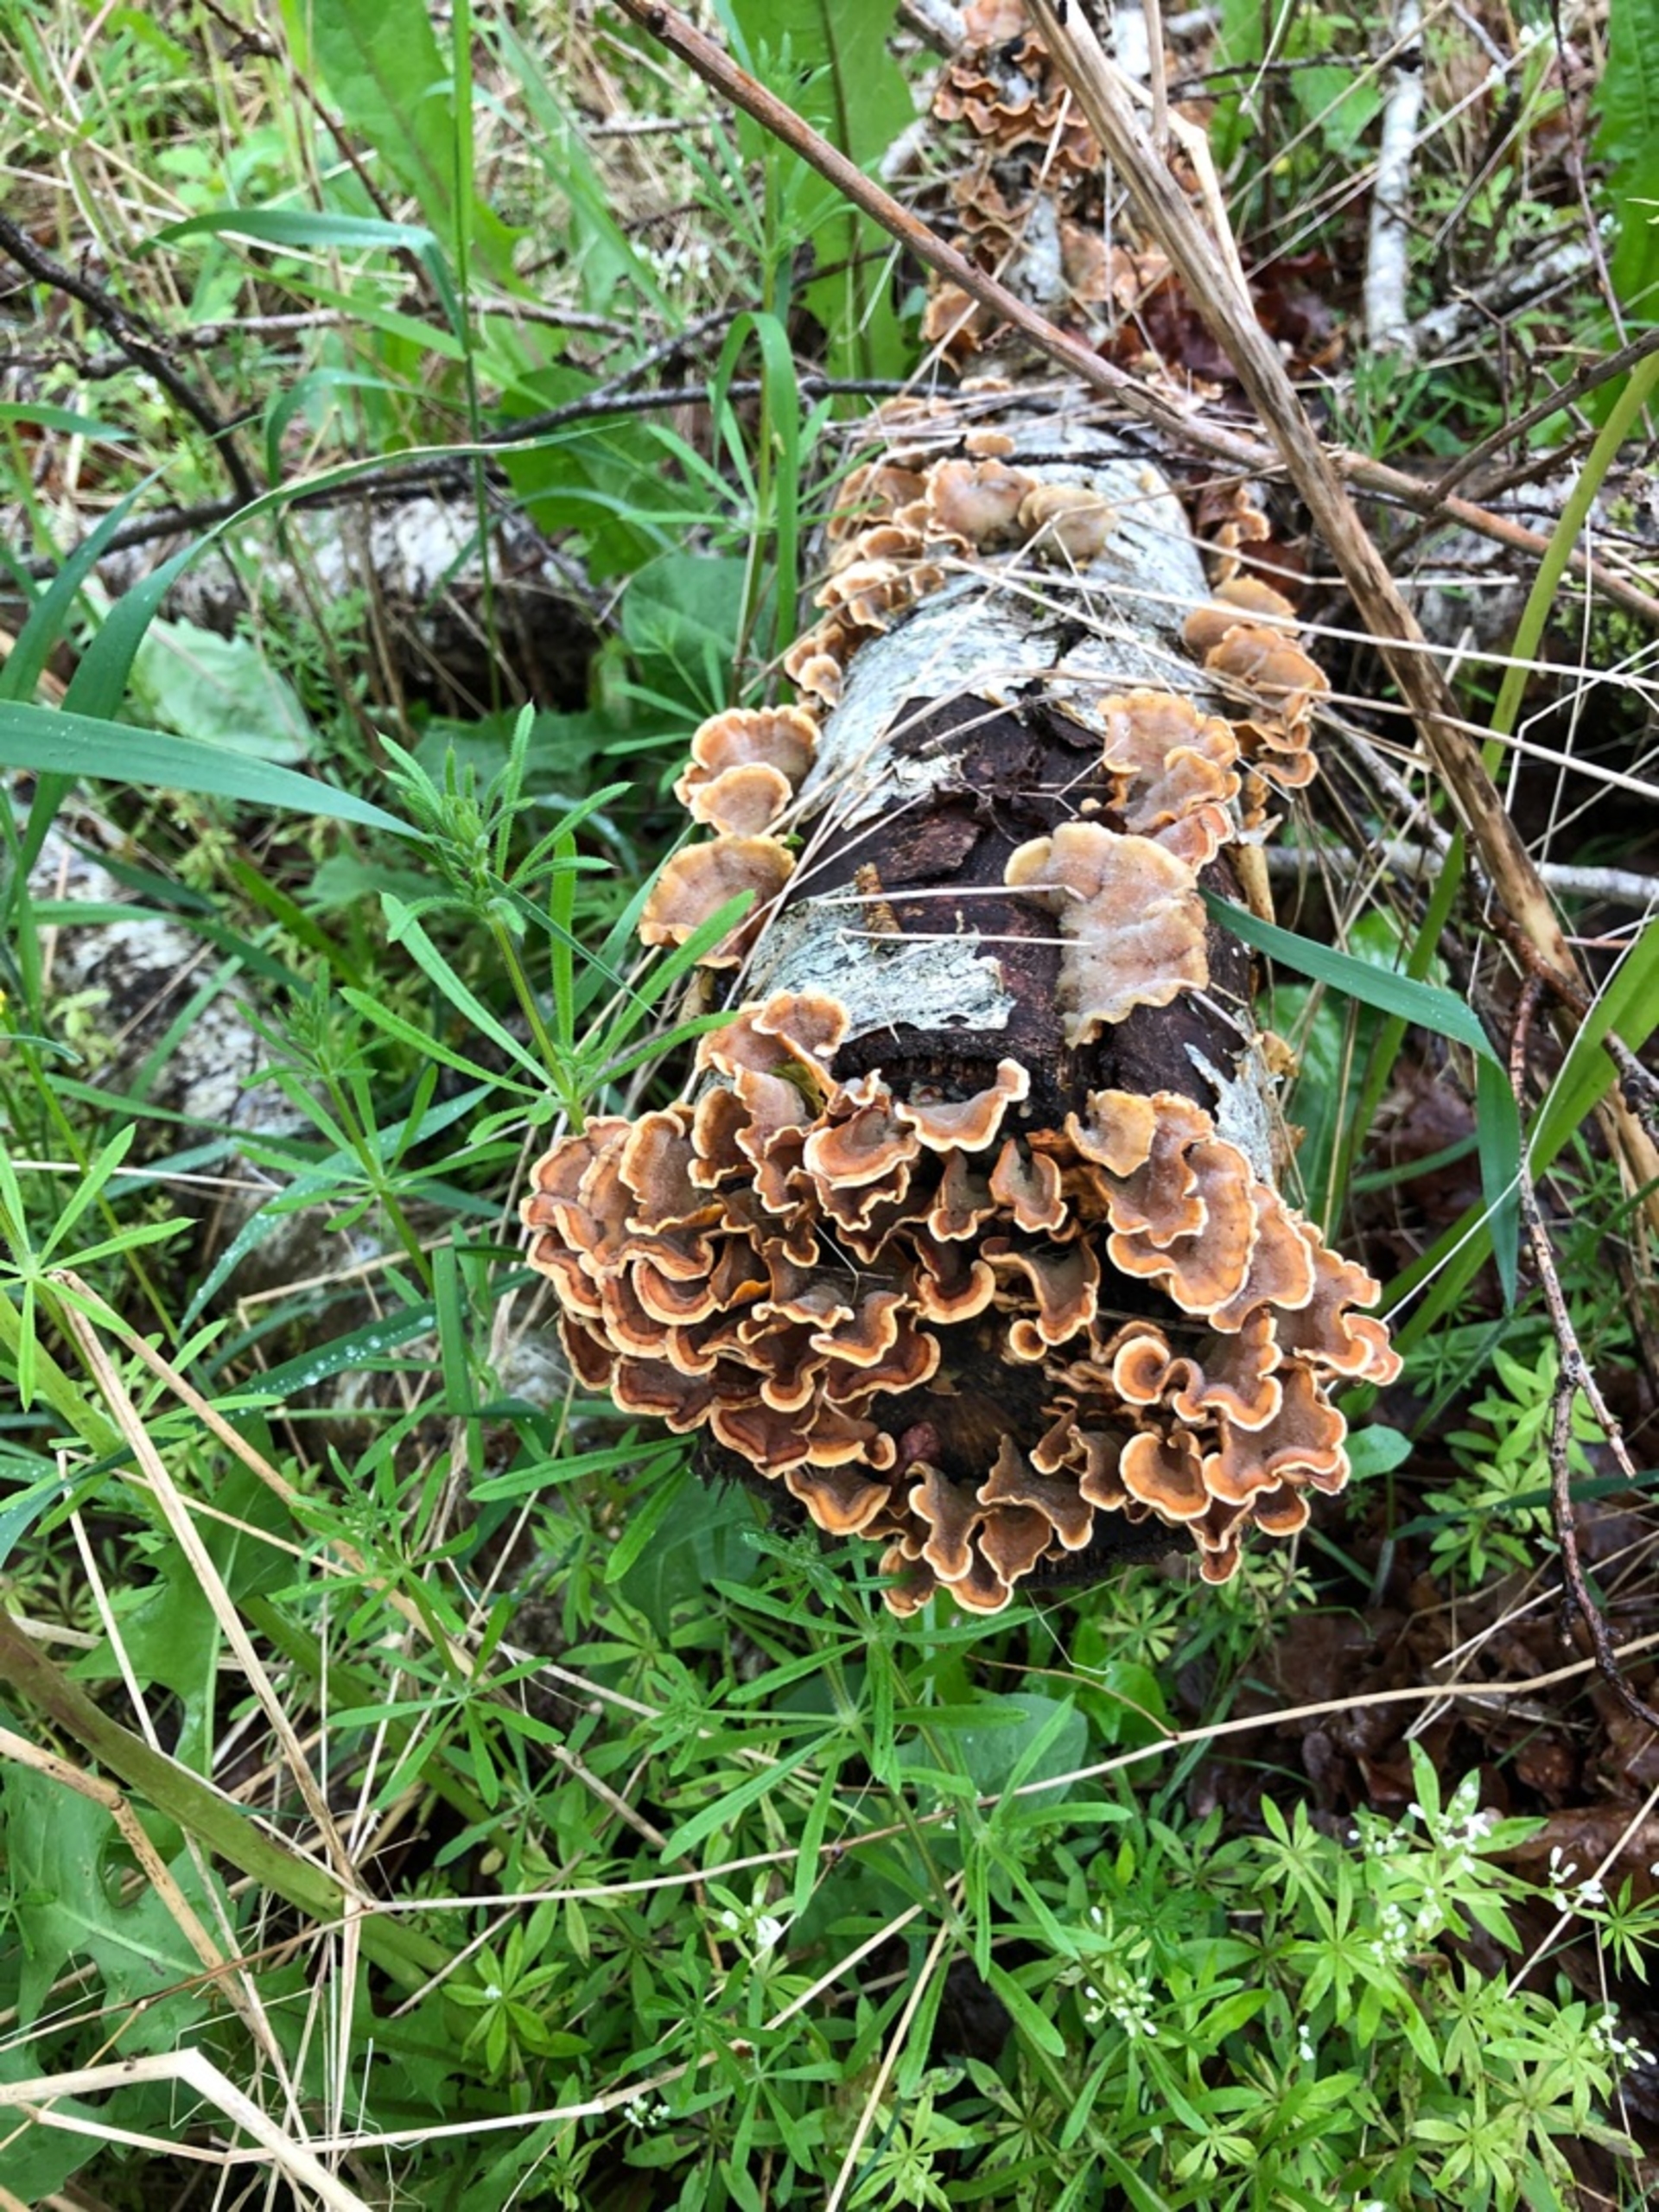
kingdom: Fungi
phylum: Basidiomycota
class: Agaricomycetes
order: Russulales
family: Stereaceae
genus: Stereum
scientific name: Stereum hirsutum
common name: Håret lædersvamp
